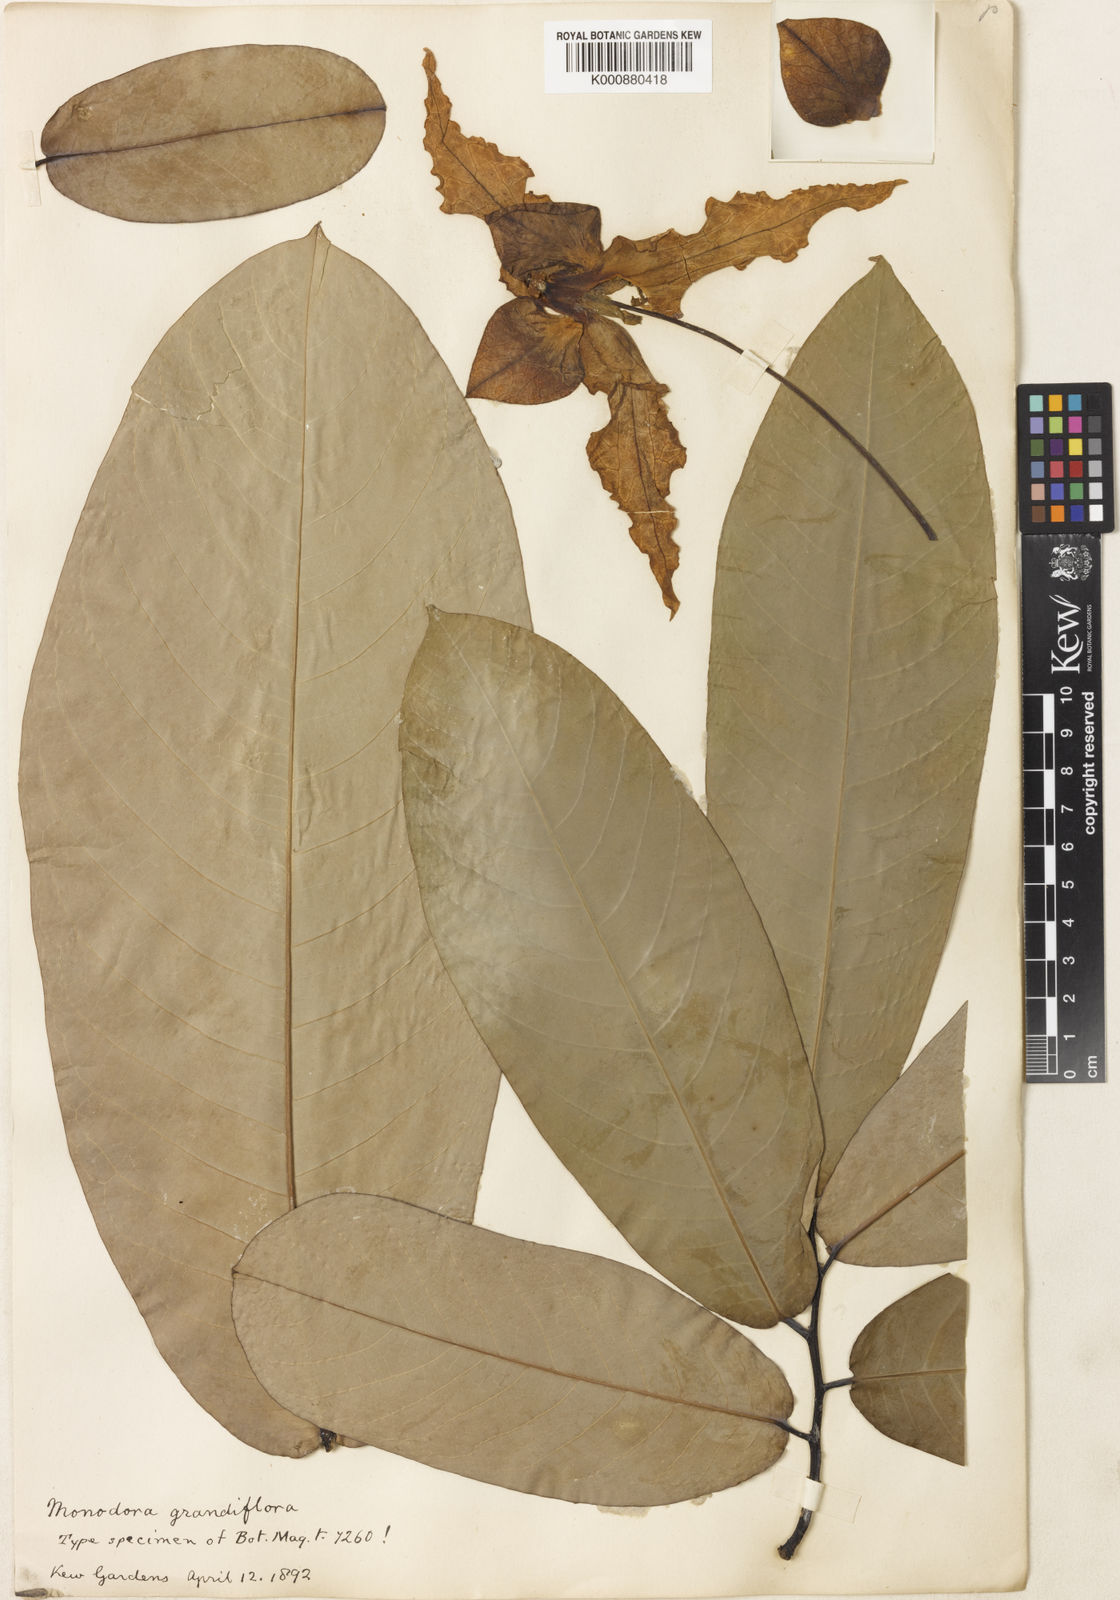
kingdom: Plantae
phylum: Tracheophyta
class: Magnoliopsida
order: Magnoliales
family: Annonaceae
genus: Monodora
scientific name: Monodora myristica
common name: African nutmeg
